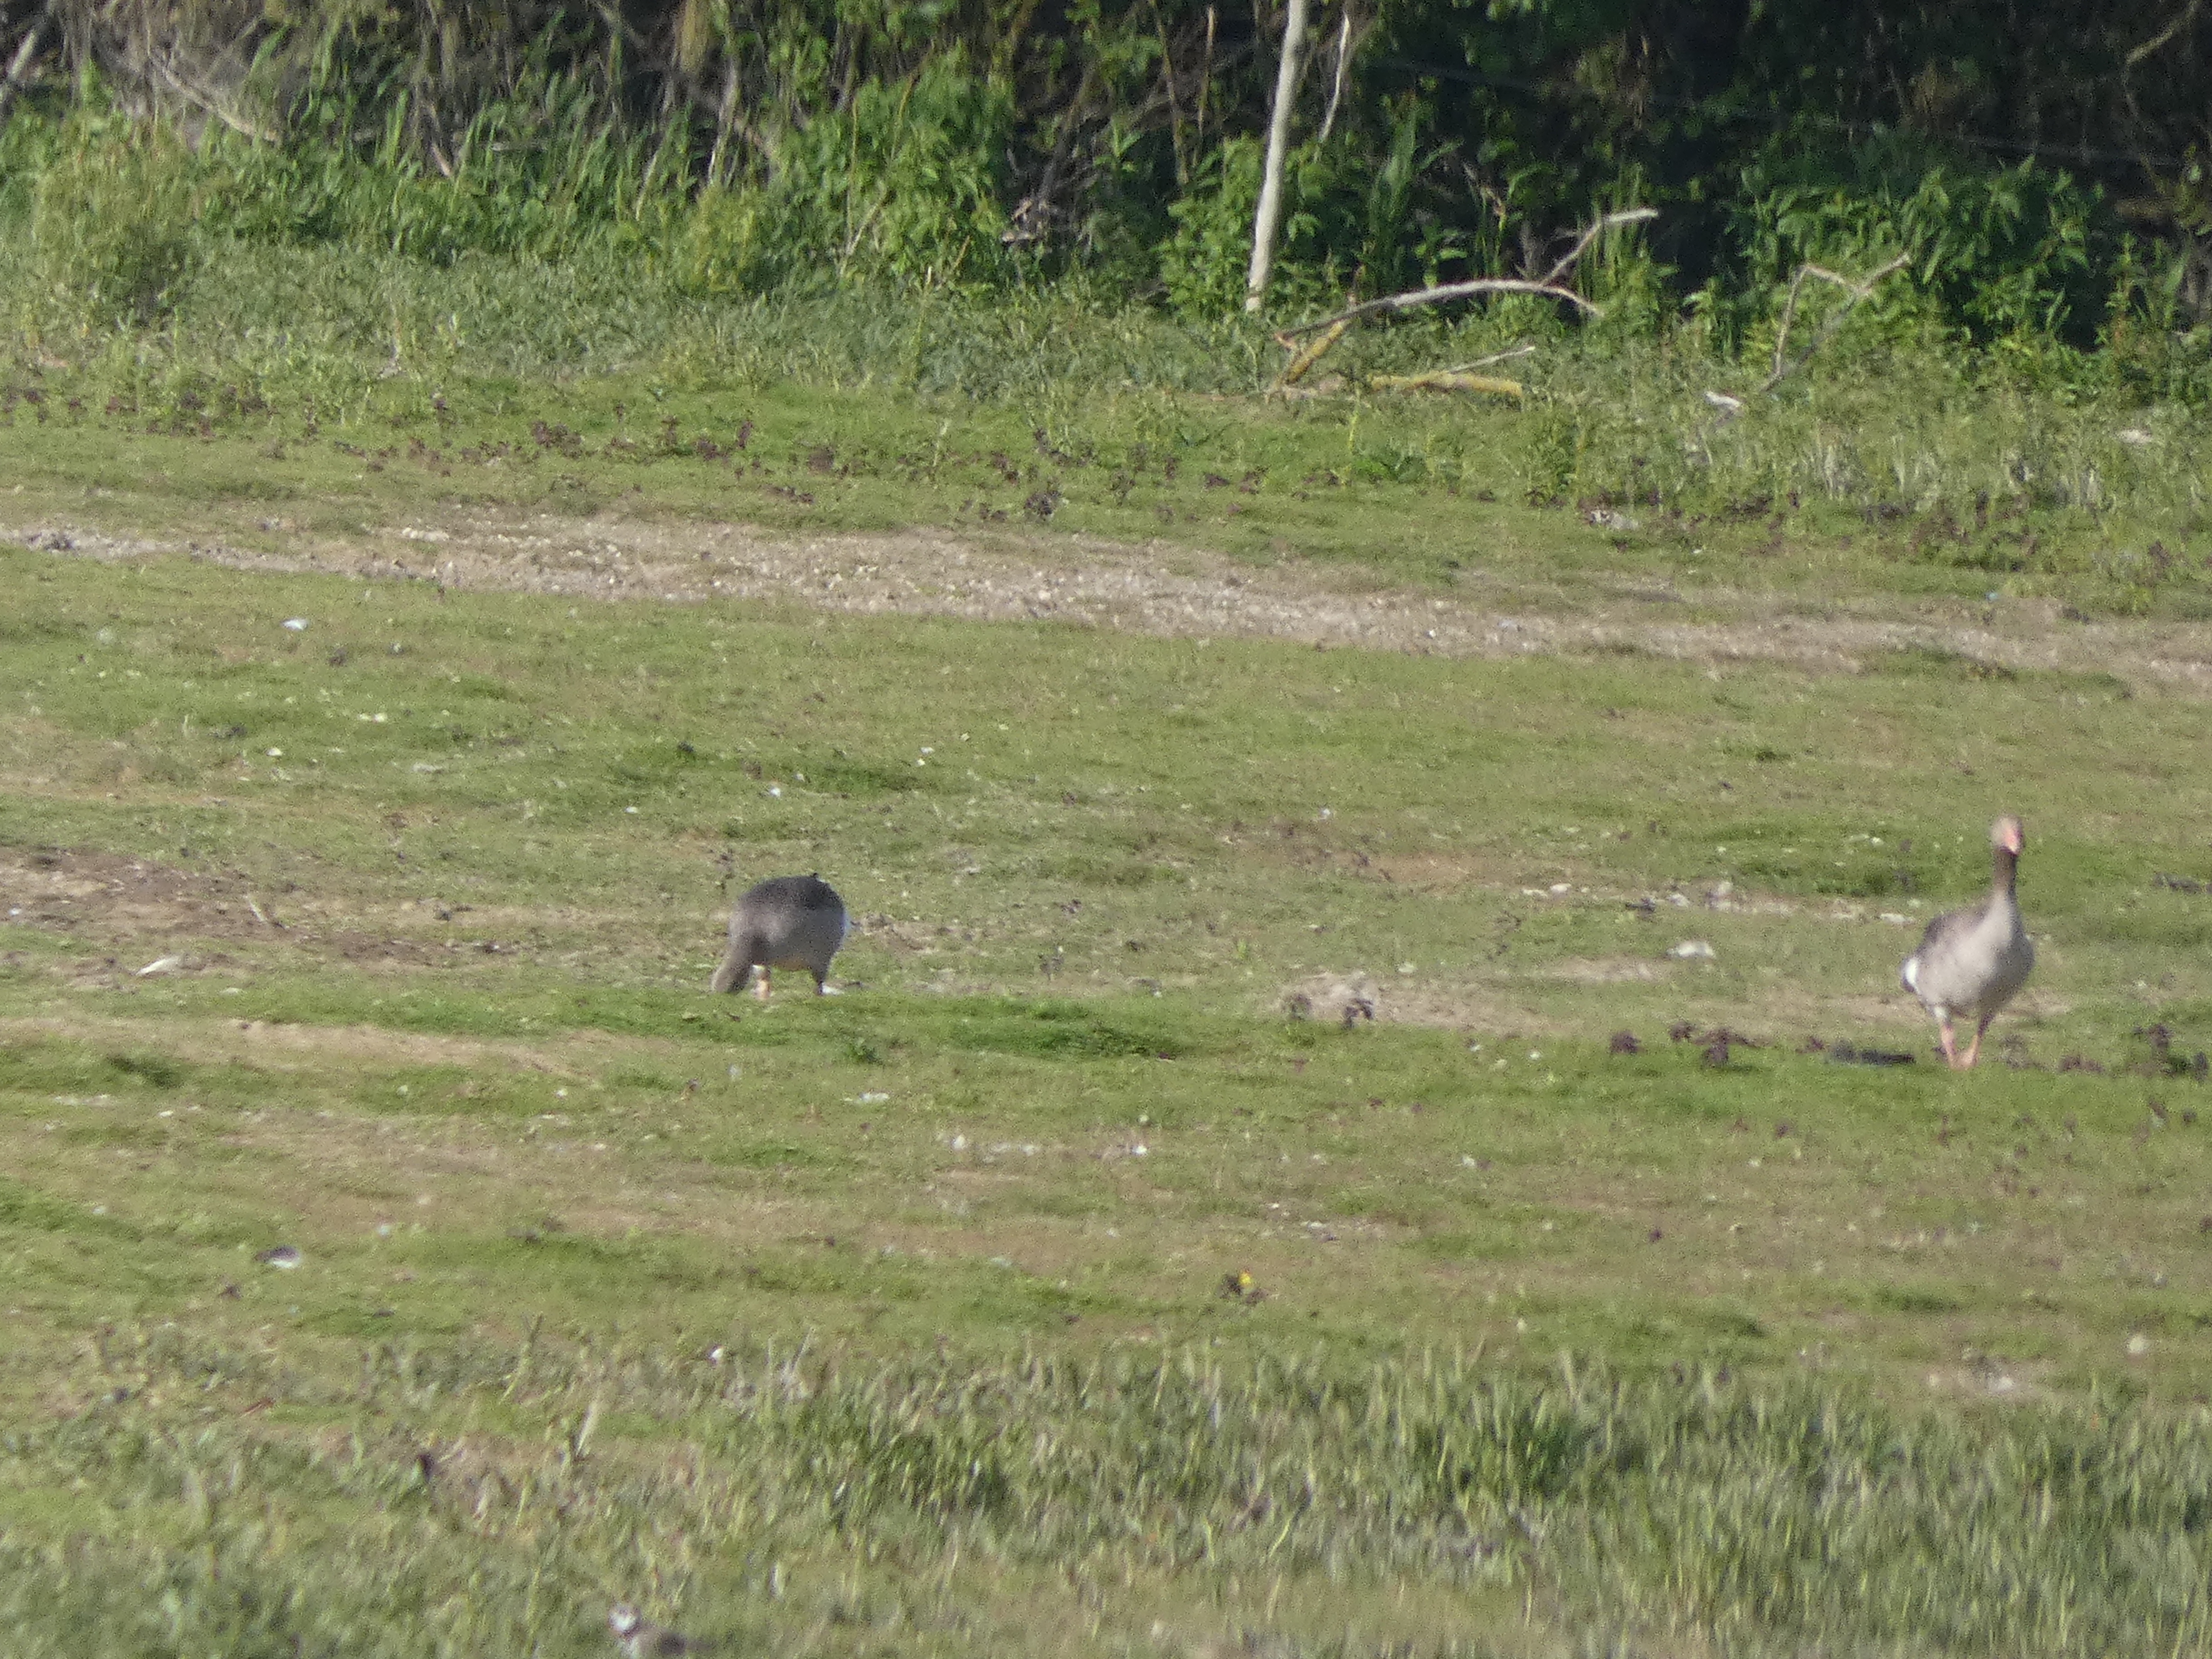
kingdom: Animalia
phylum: Chordata
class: Aves
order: Anseriformes
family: Anatidae
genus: Anser
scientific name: Anser anser
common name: Grågås
